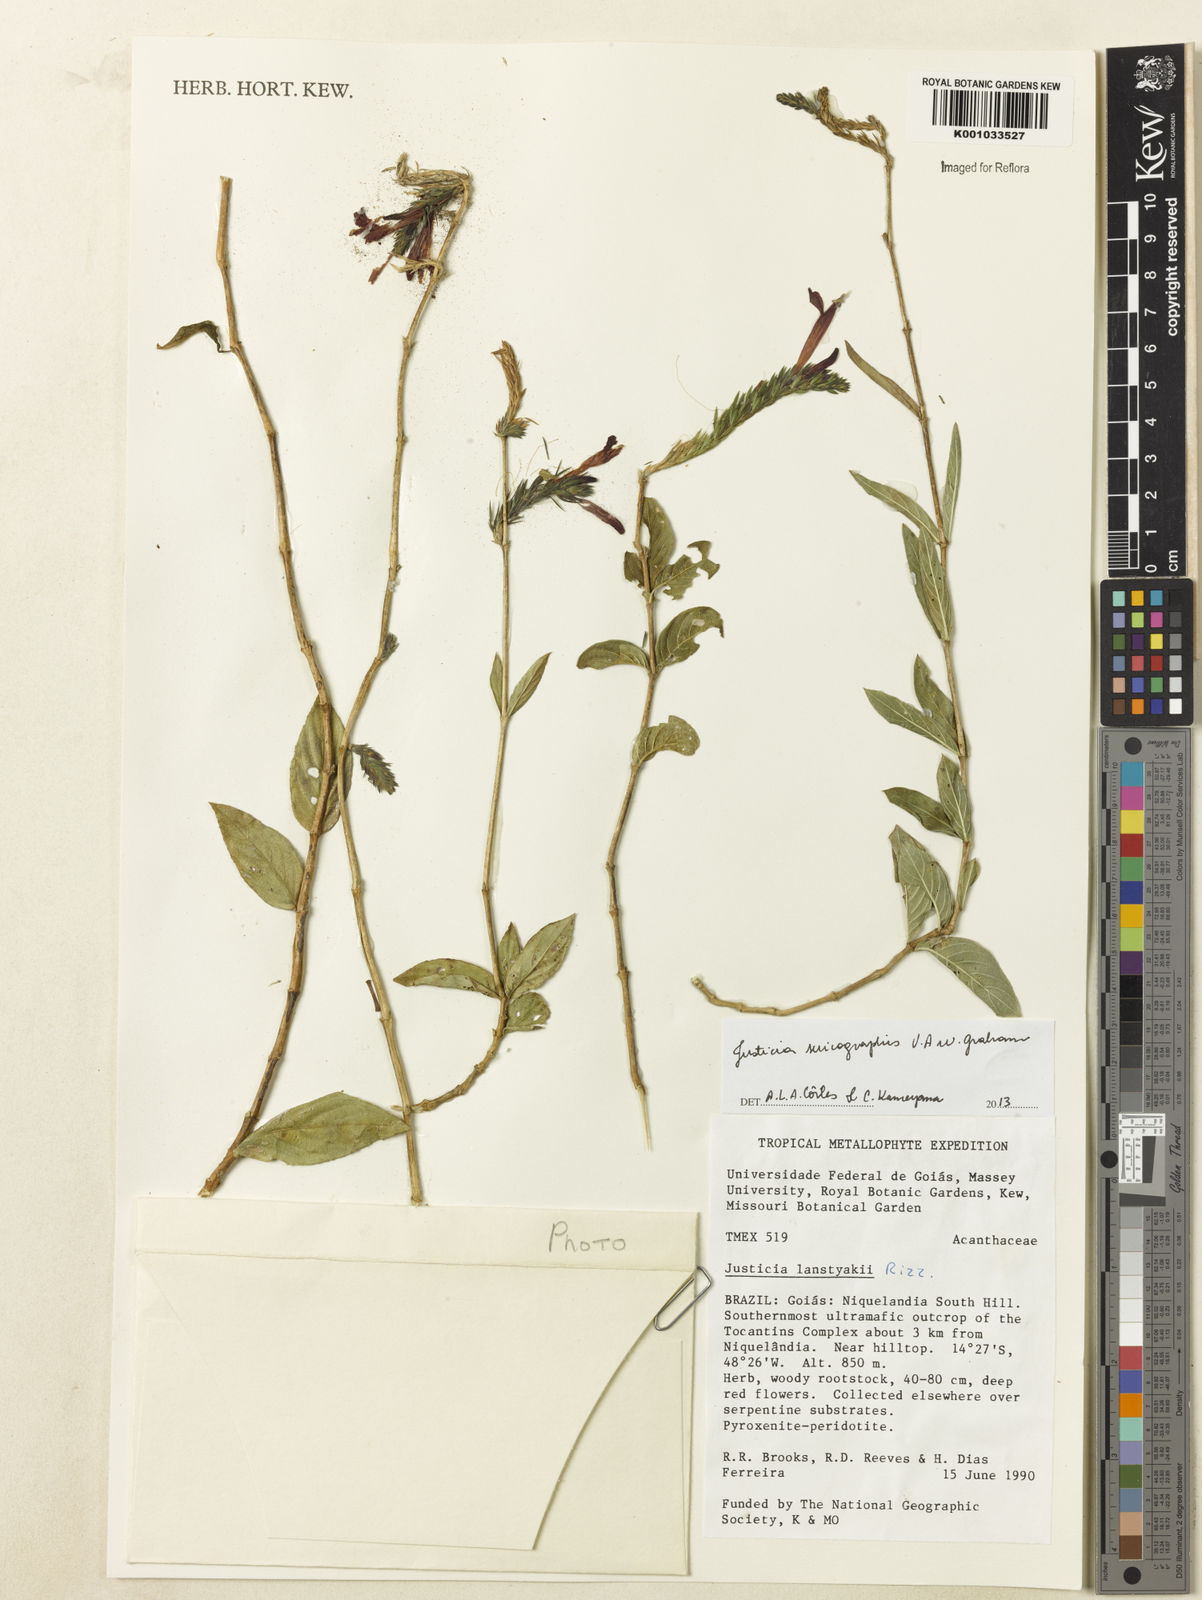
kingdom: Plantae
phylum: Tracheophyta
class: Magnoliopsida
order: Lamiales
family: Acanthaceae
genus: Dianthera
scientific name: Dianthera rigida
